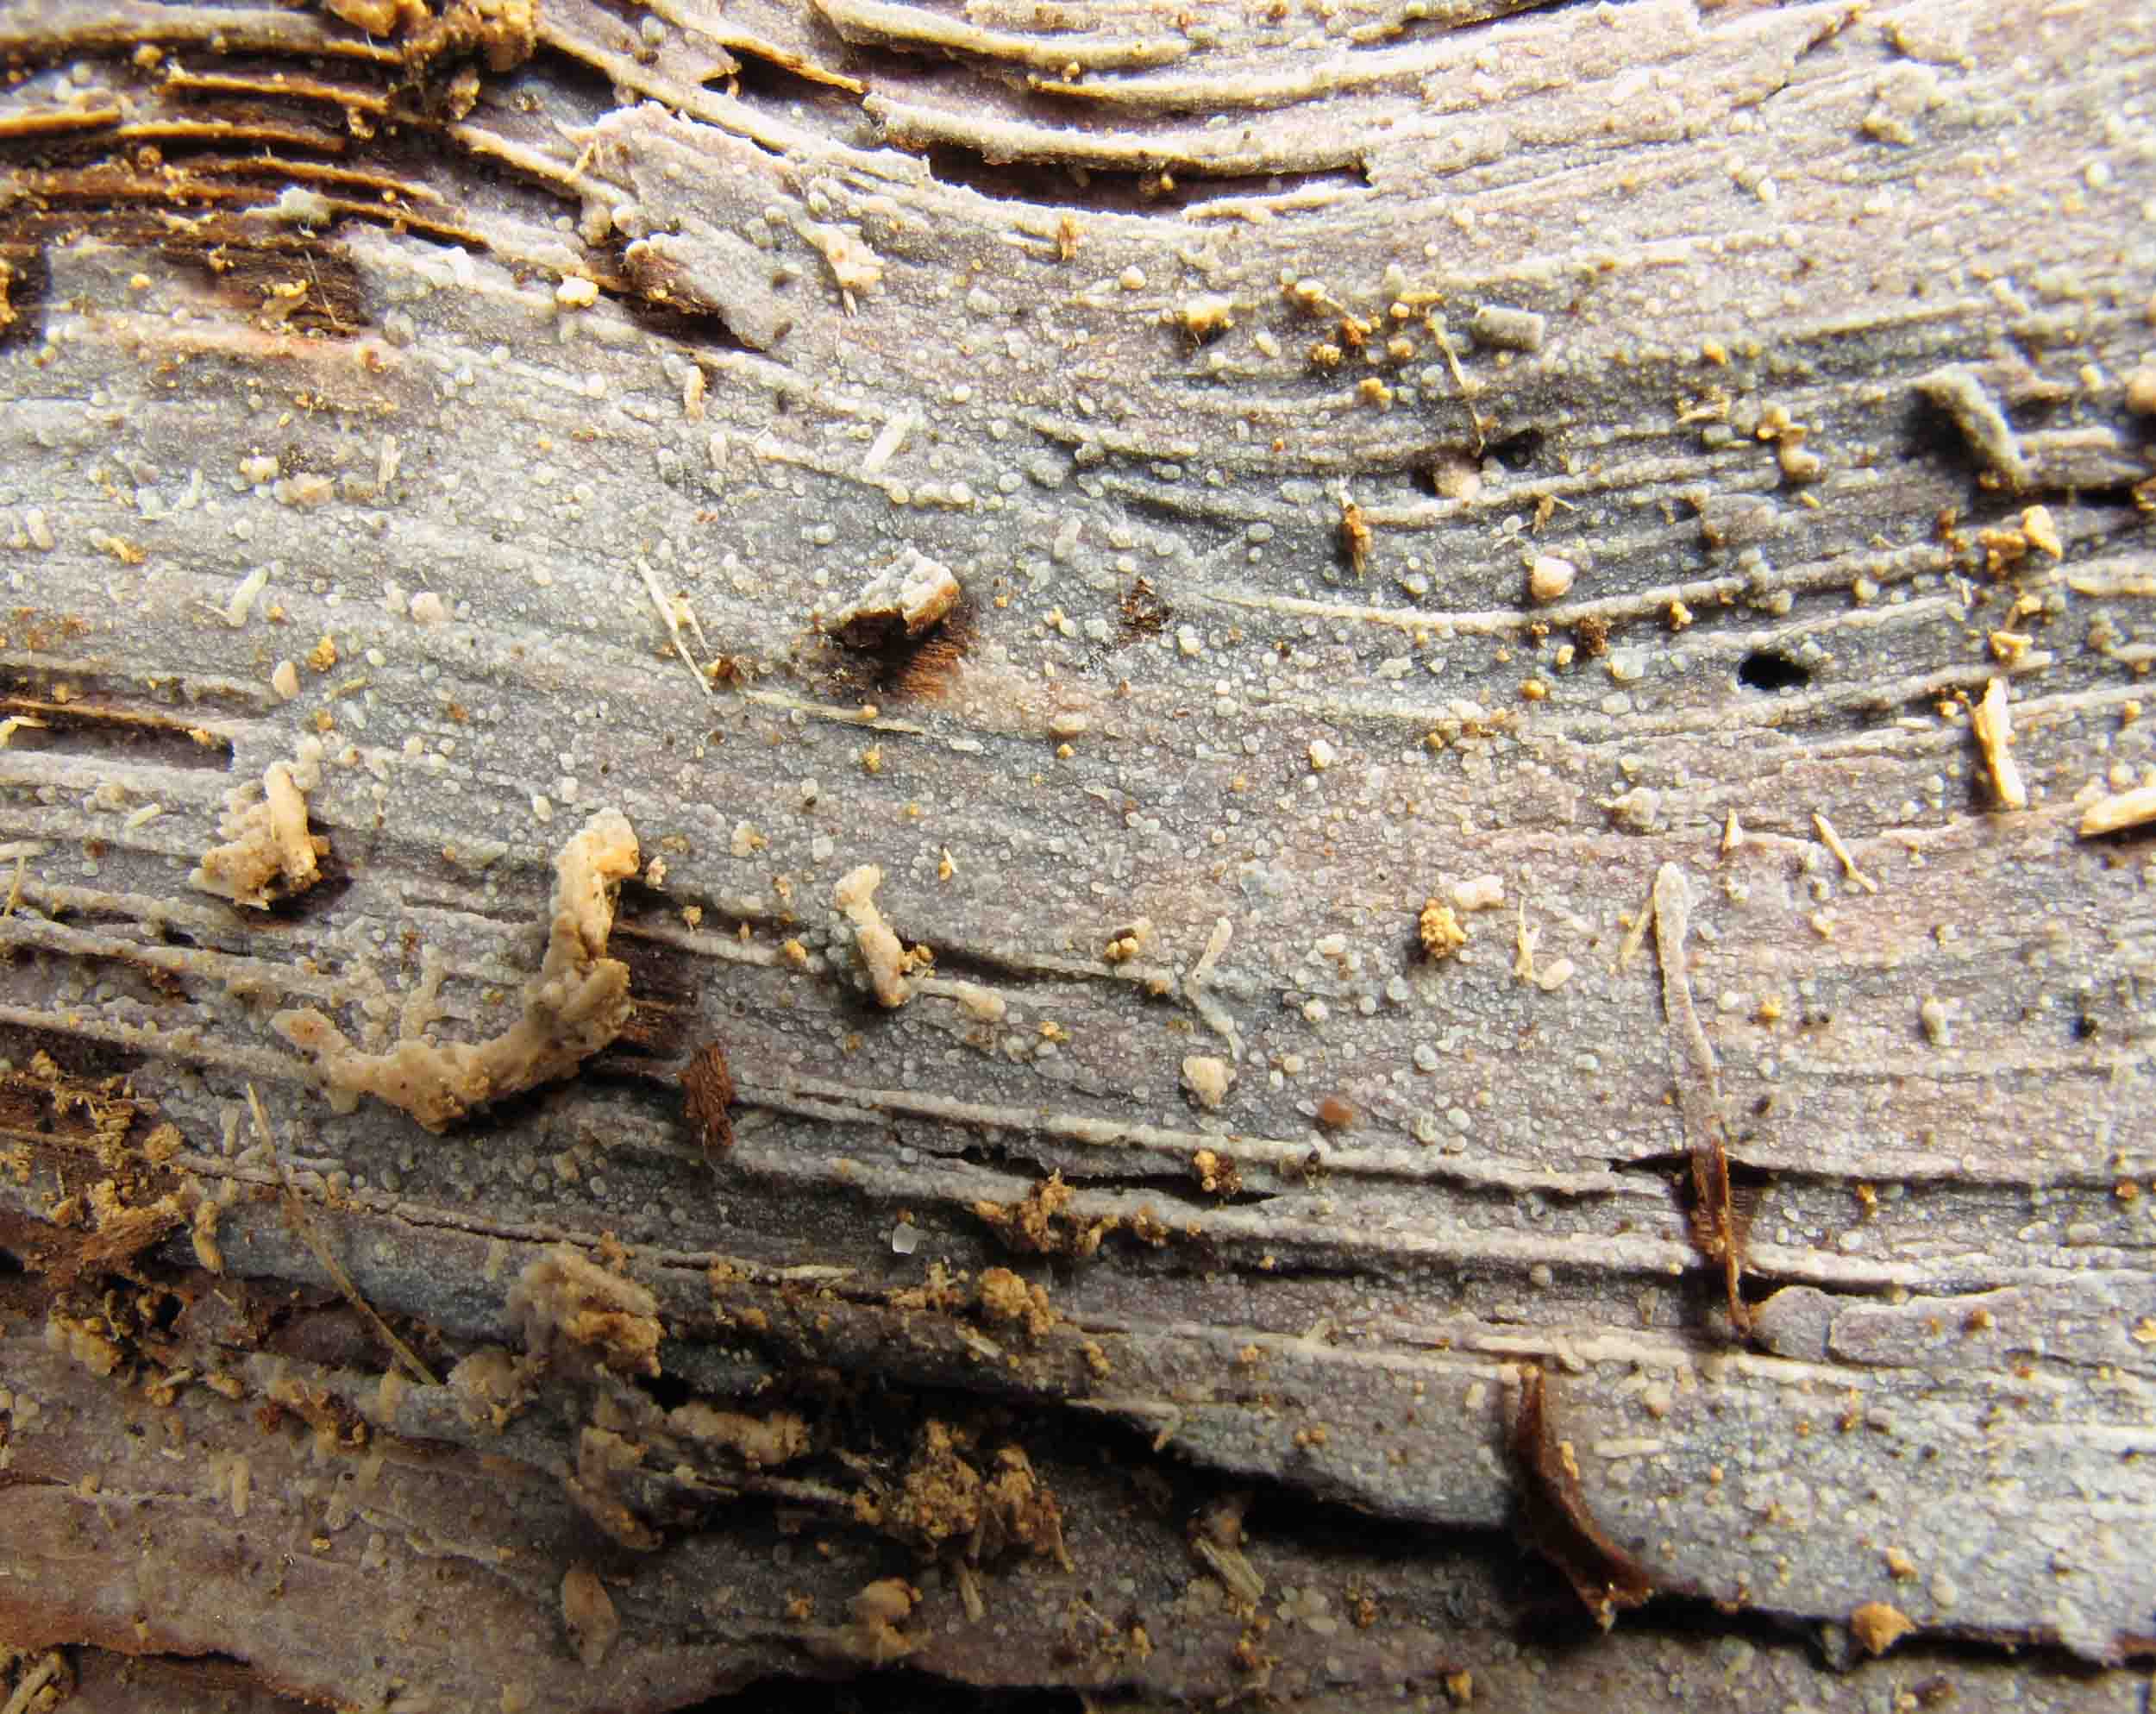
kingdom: Fungi
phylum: Basidiomycota
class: Agaricomycetes
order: Polyporales
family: Meruliaceae
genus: Scopuloides
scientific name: Scopuloides rimosa
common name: dughinde
